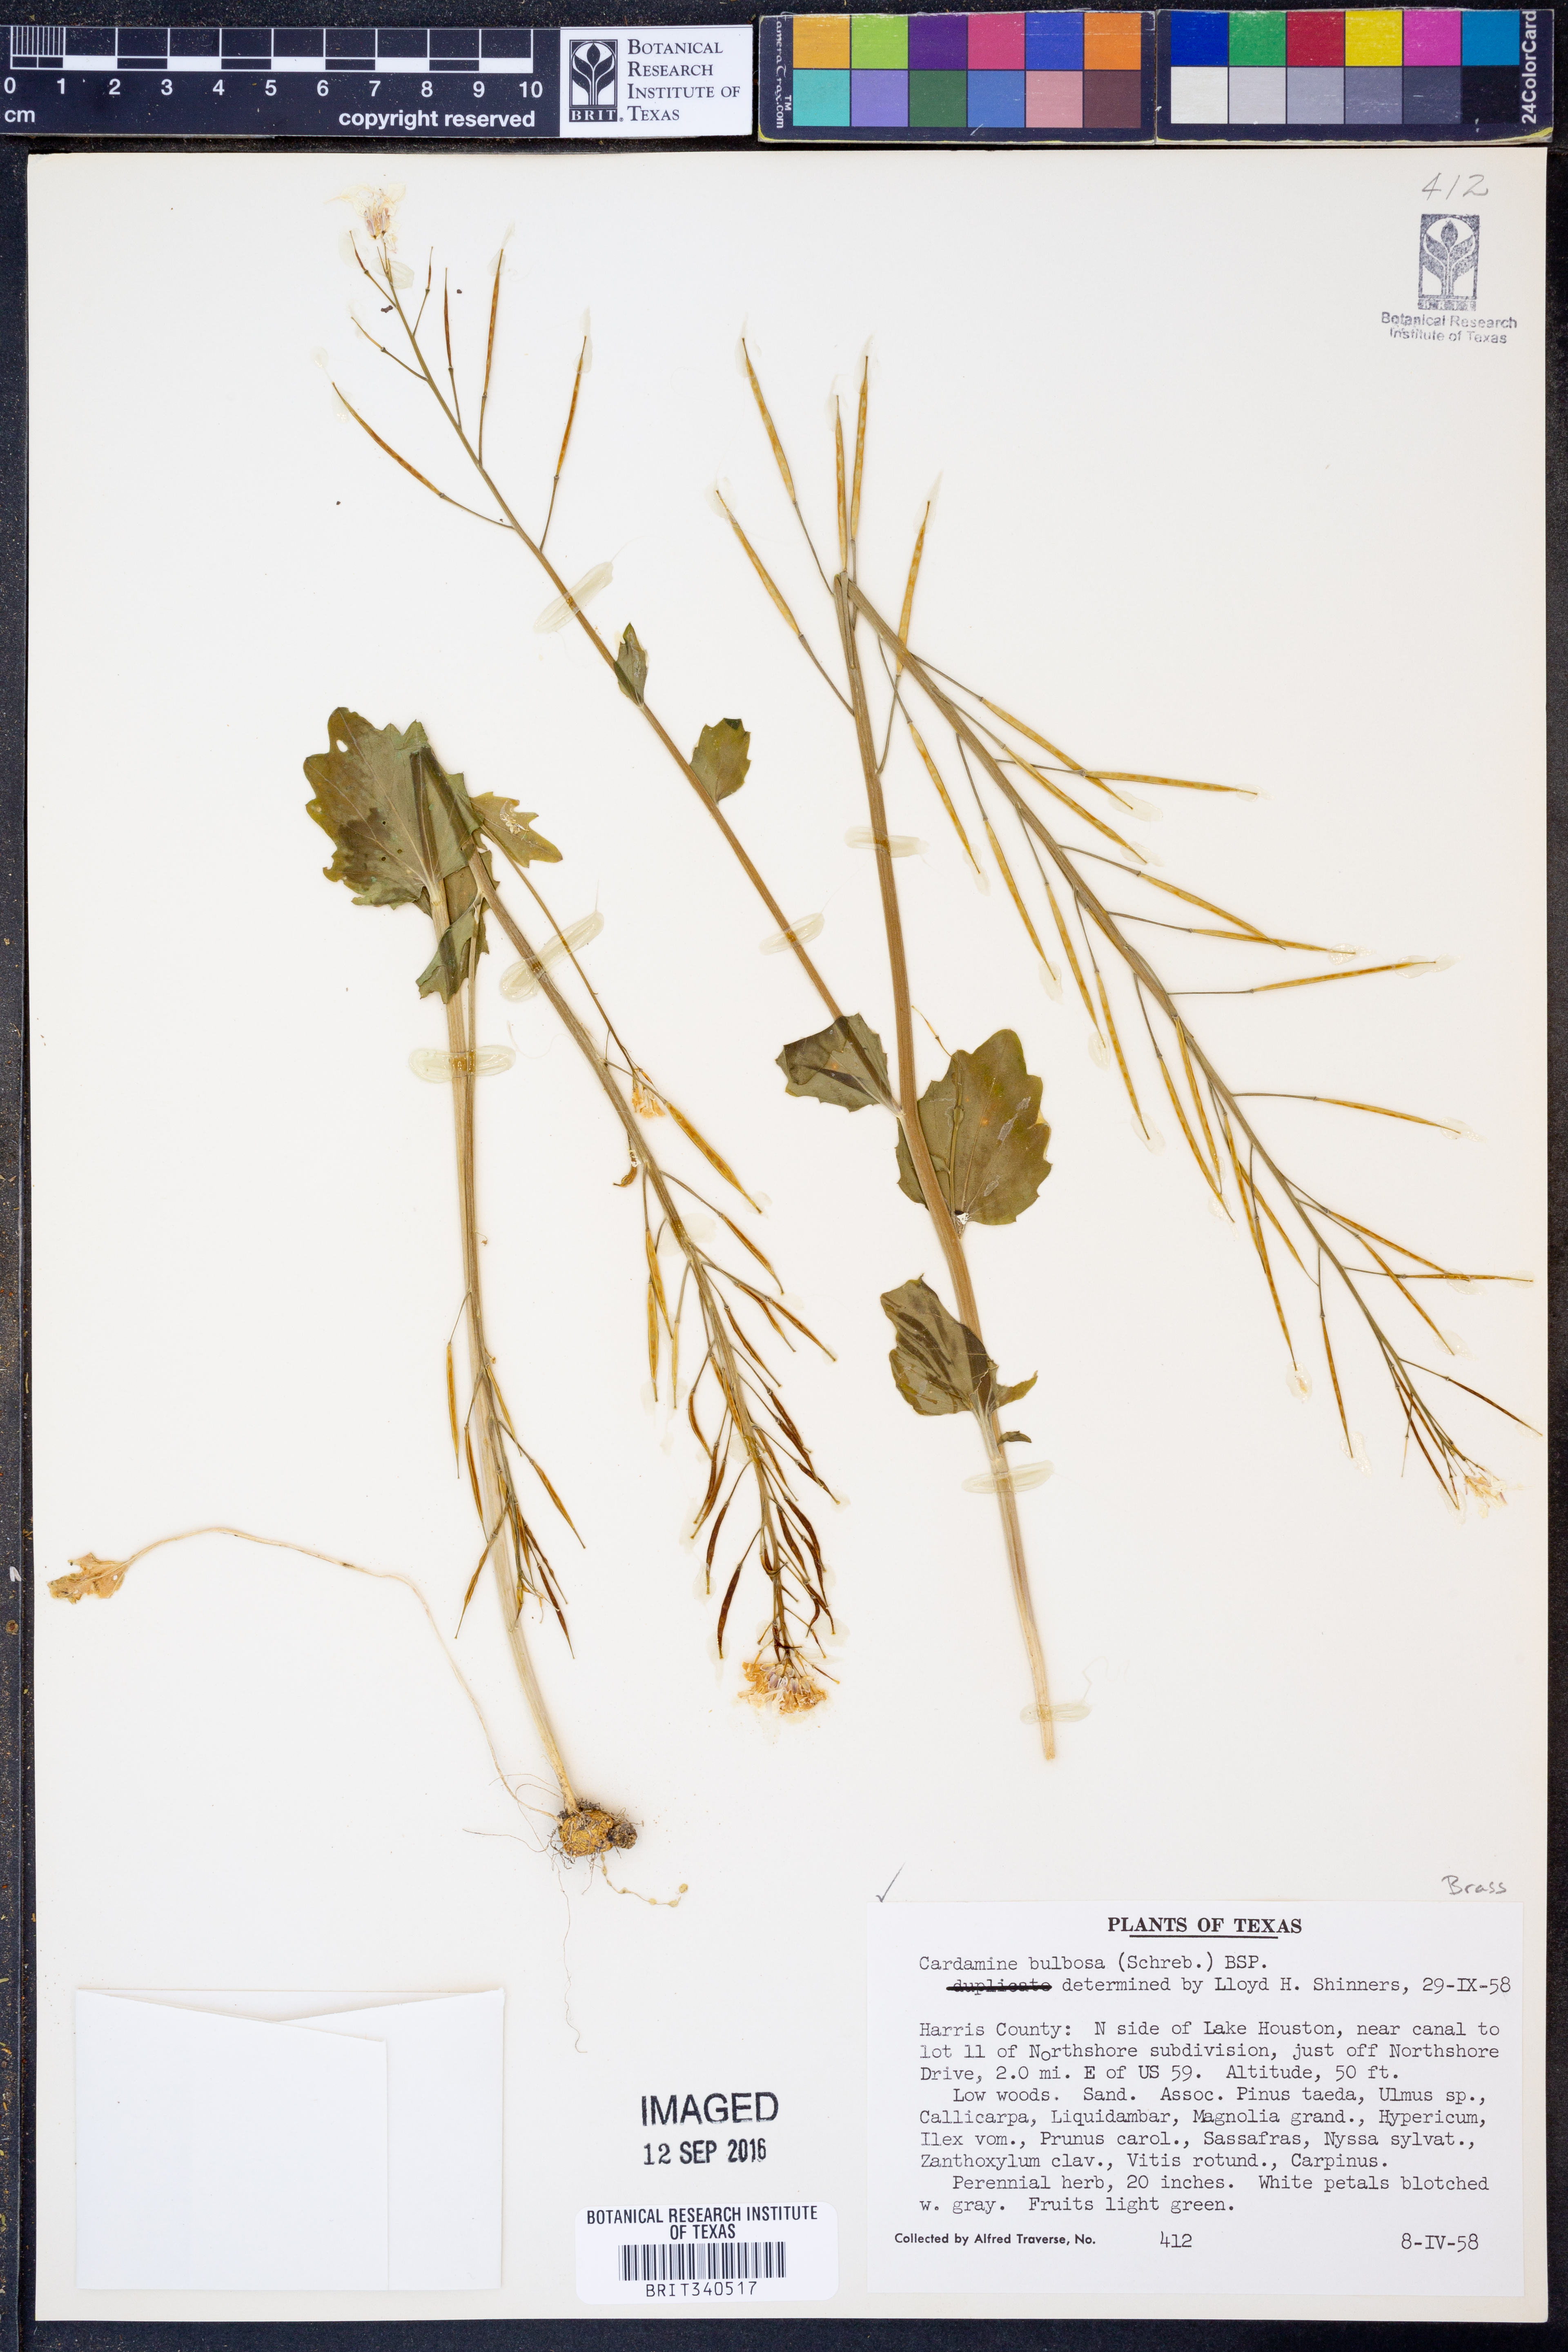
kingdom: Plantae
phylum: Tracheophyta
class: Magnoliopsida
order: Brassicales
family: Brassicaceae
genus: Cardamine
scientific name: Cardamine bulbosa
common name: Spring cress
